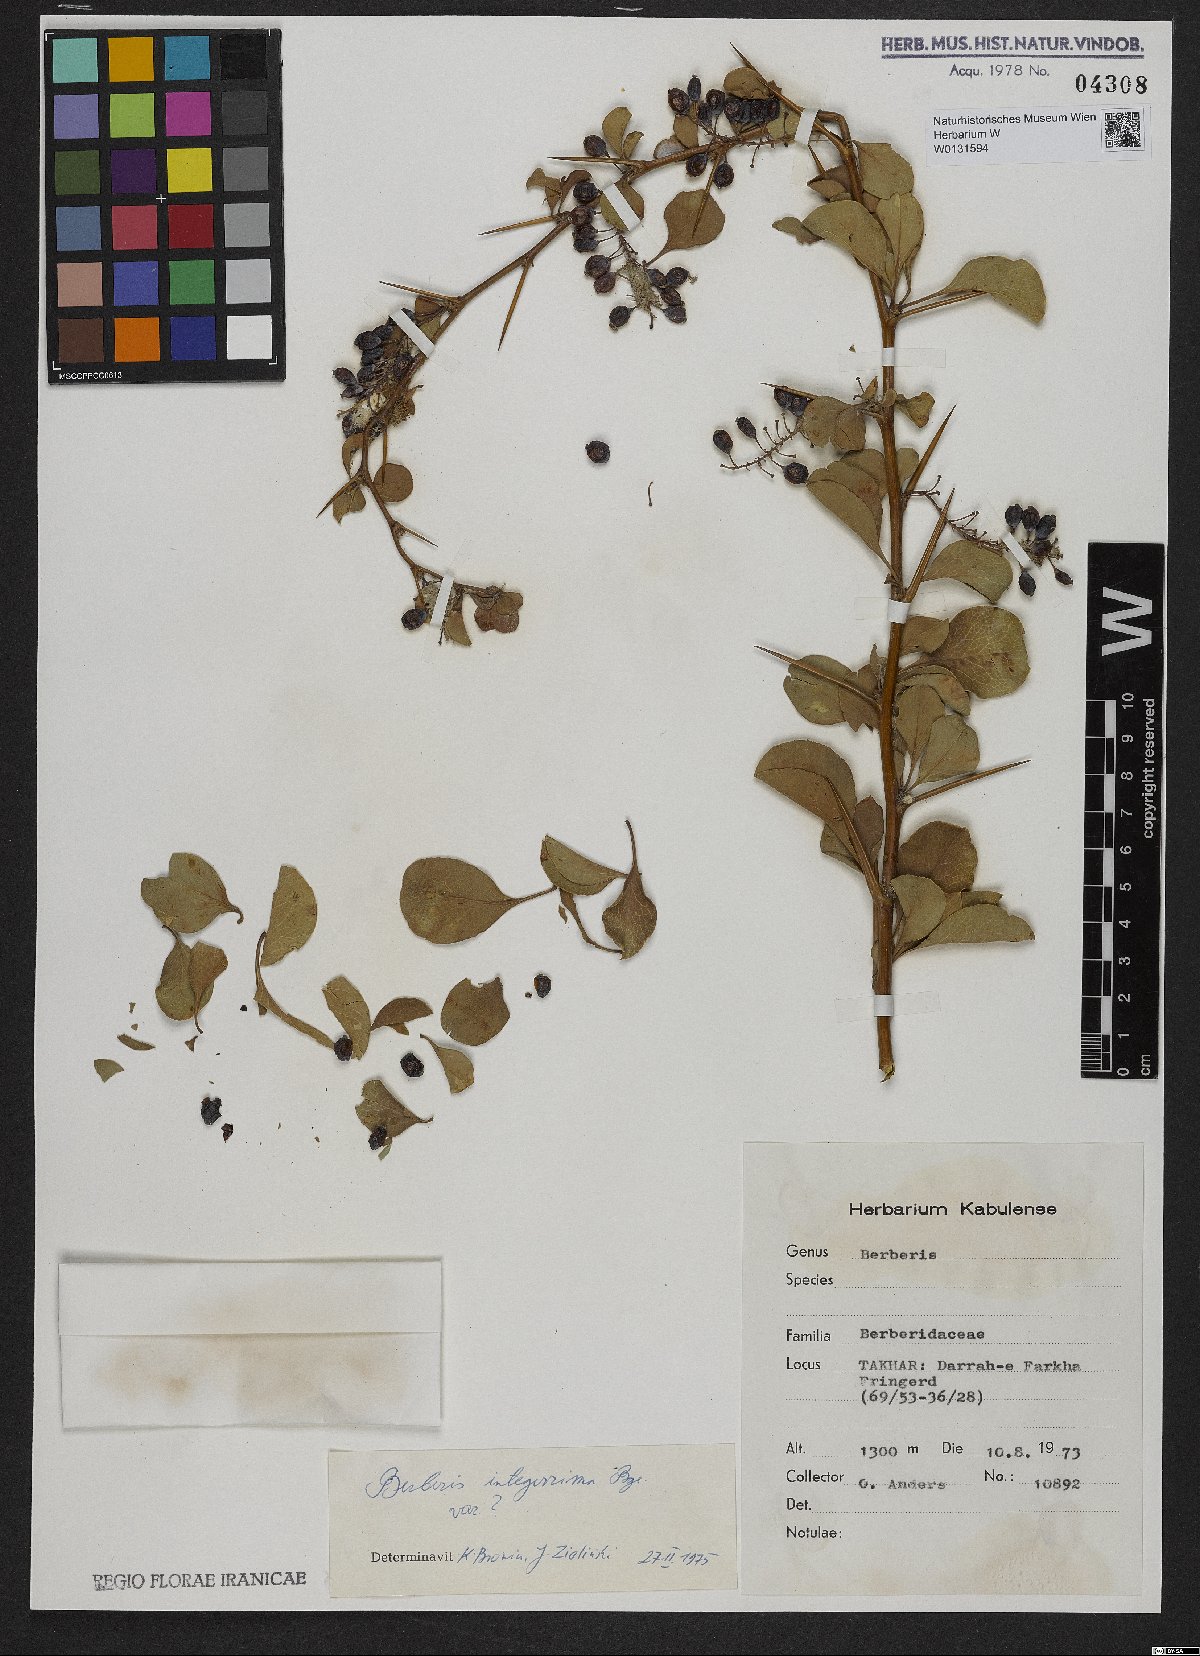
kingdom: Plantae
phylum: Tracheophyta
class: Magnoliopsida
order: Ranunculales
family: Berberidaceae
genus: Berberis
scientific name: Berberis integerrima
